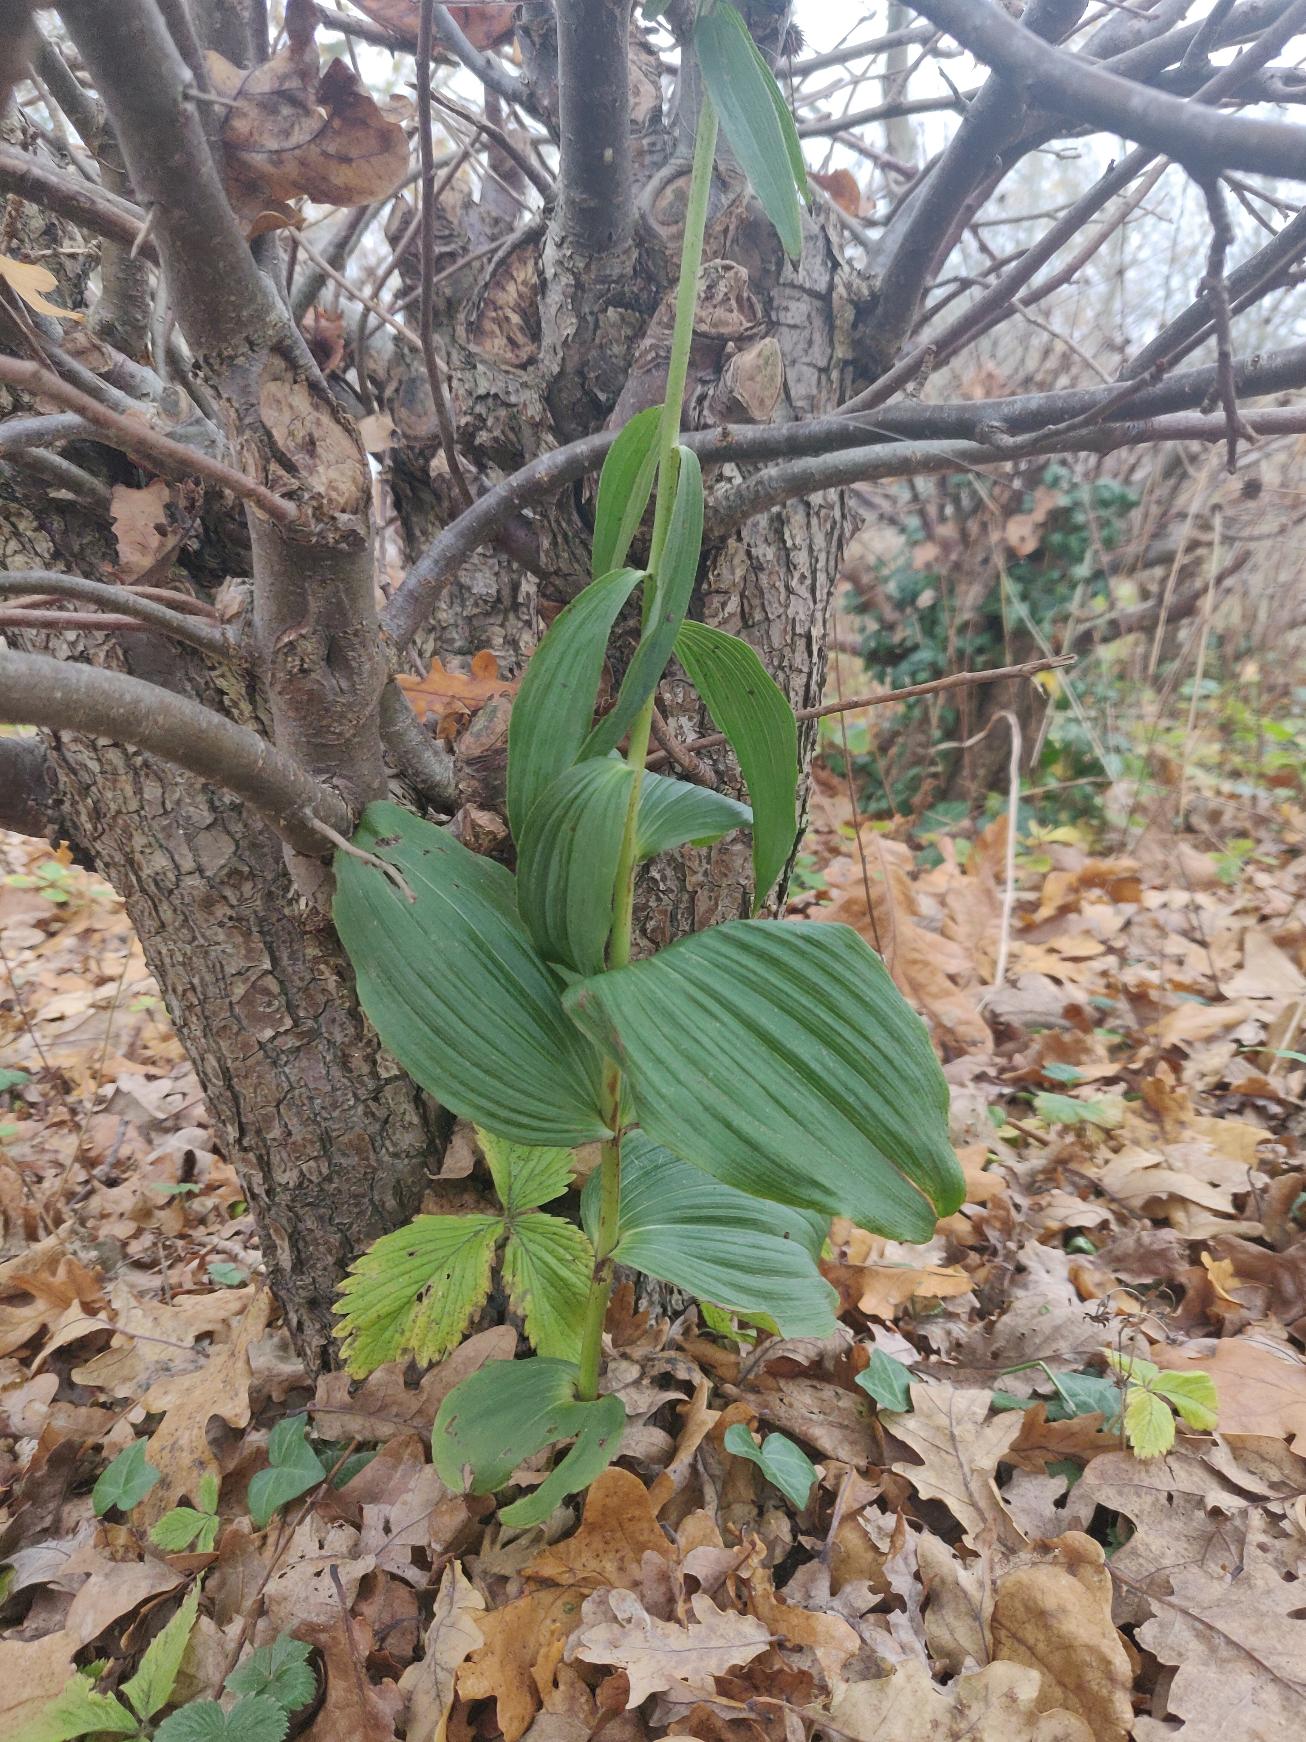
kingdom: Plantae
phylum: Tracheophyta
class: Liliopsida
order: Asparagales
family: Orchidaceae
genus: Epipactis
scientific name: Epipactis helleborine
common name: Skov-hullæbe
